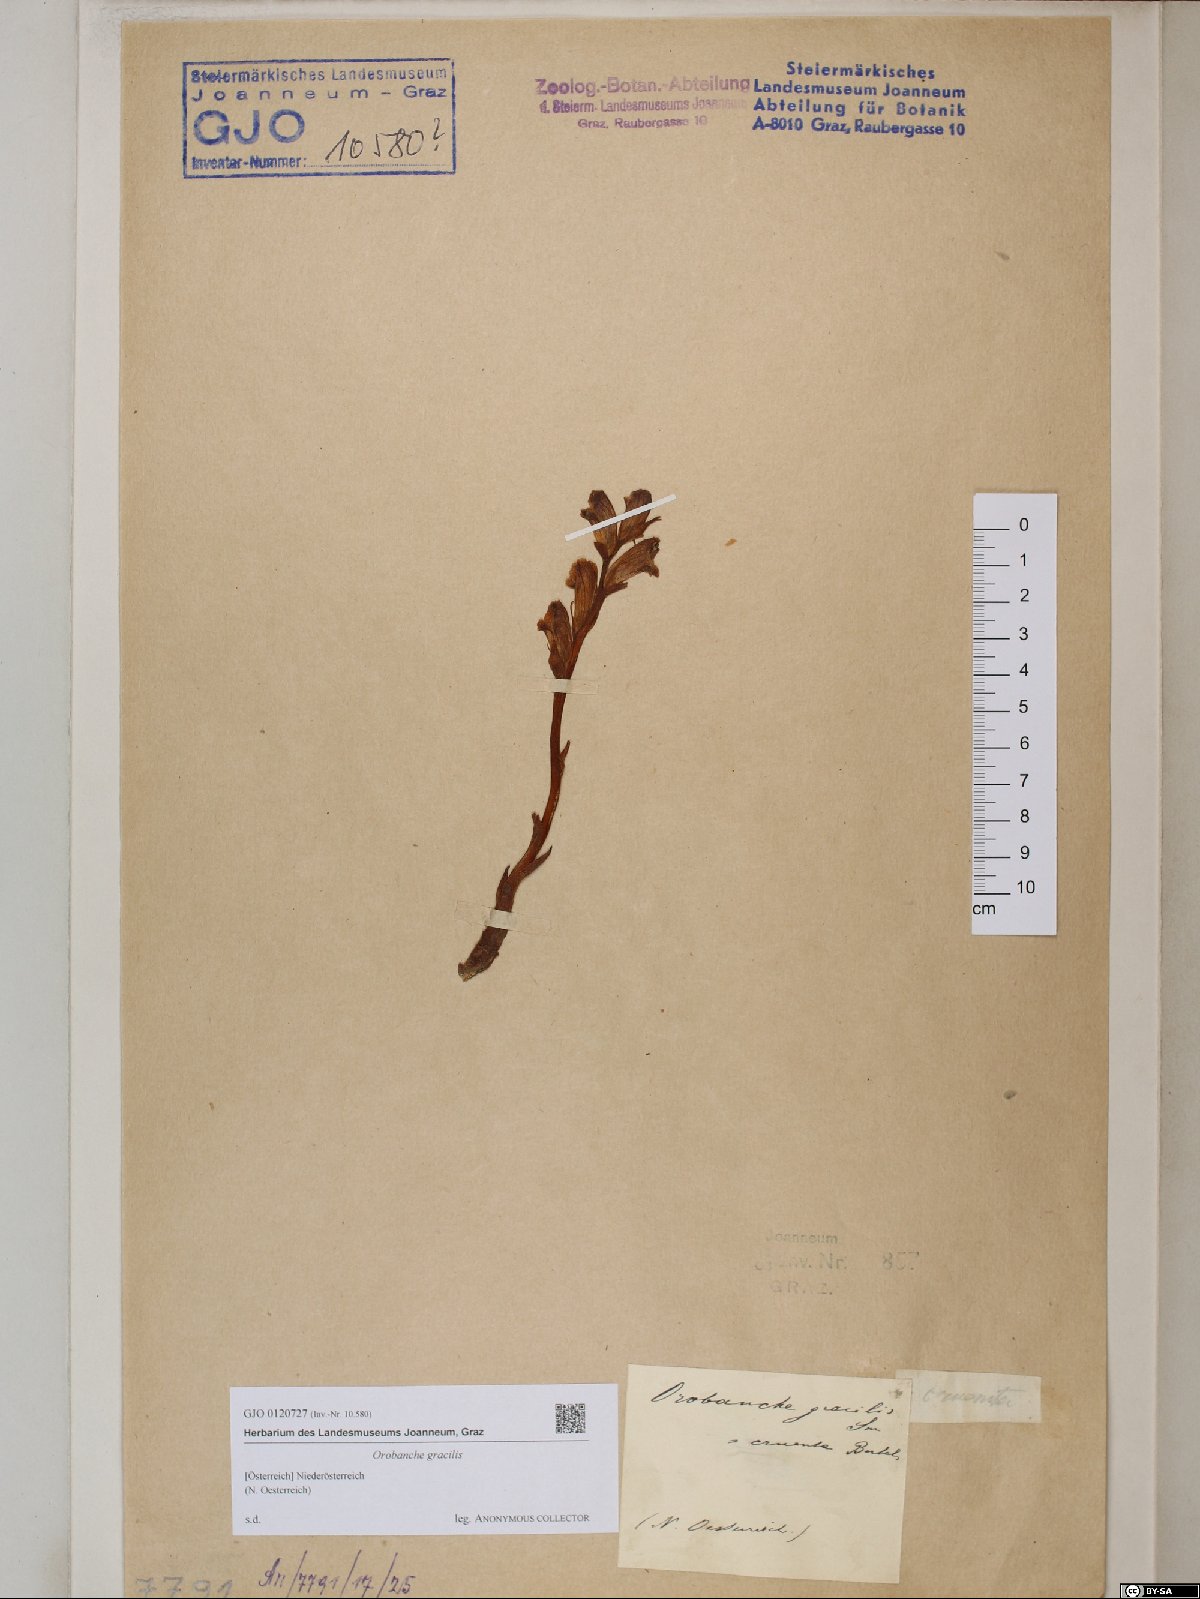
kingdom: Plantae
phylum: Tracheophyta
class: Magnoliopsida
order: Lamiales
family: Orobanchaceae
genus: Orobanche
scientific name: Orobanche gracilis
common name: Slender broomrape
